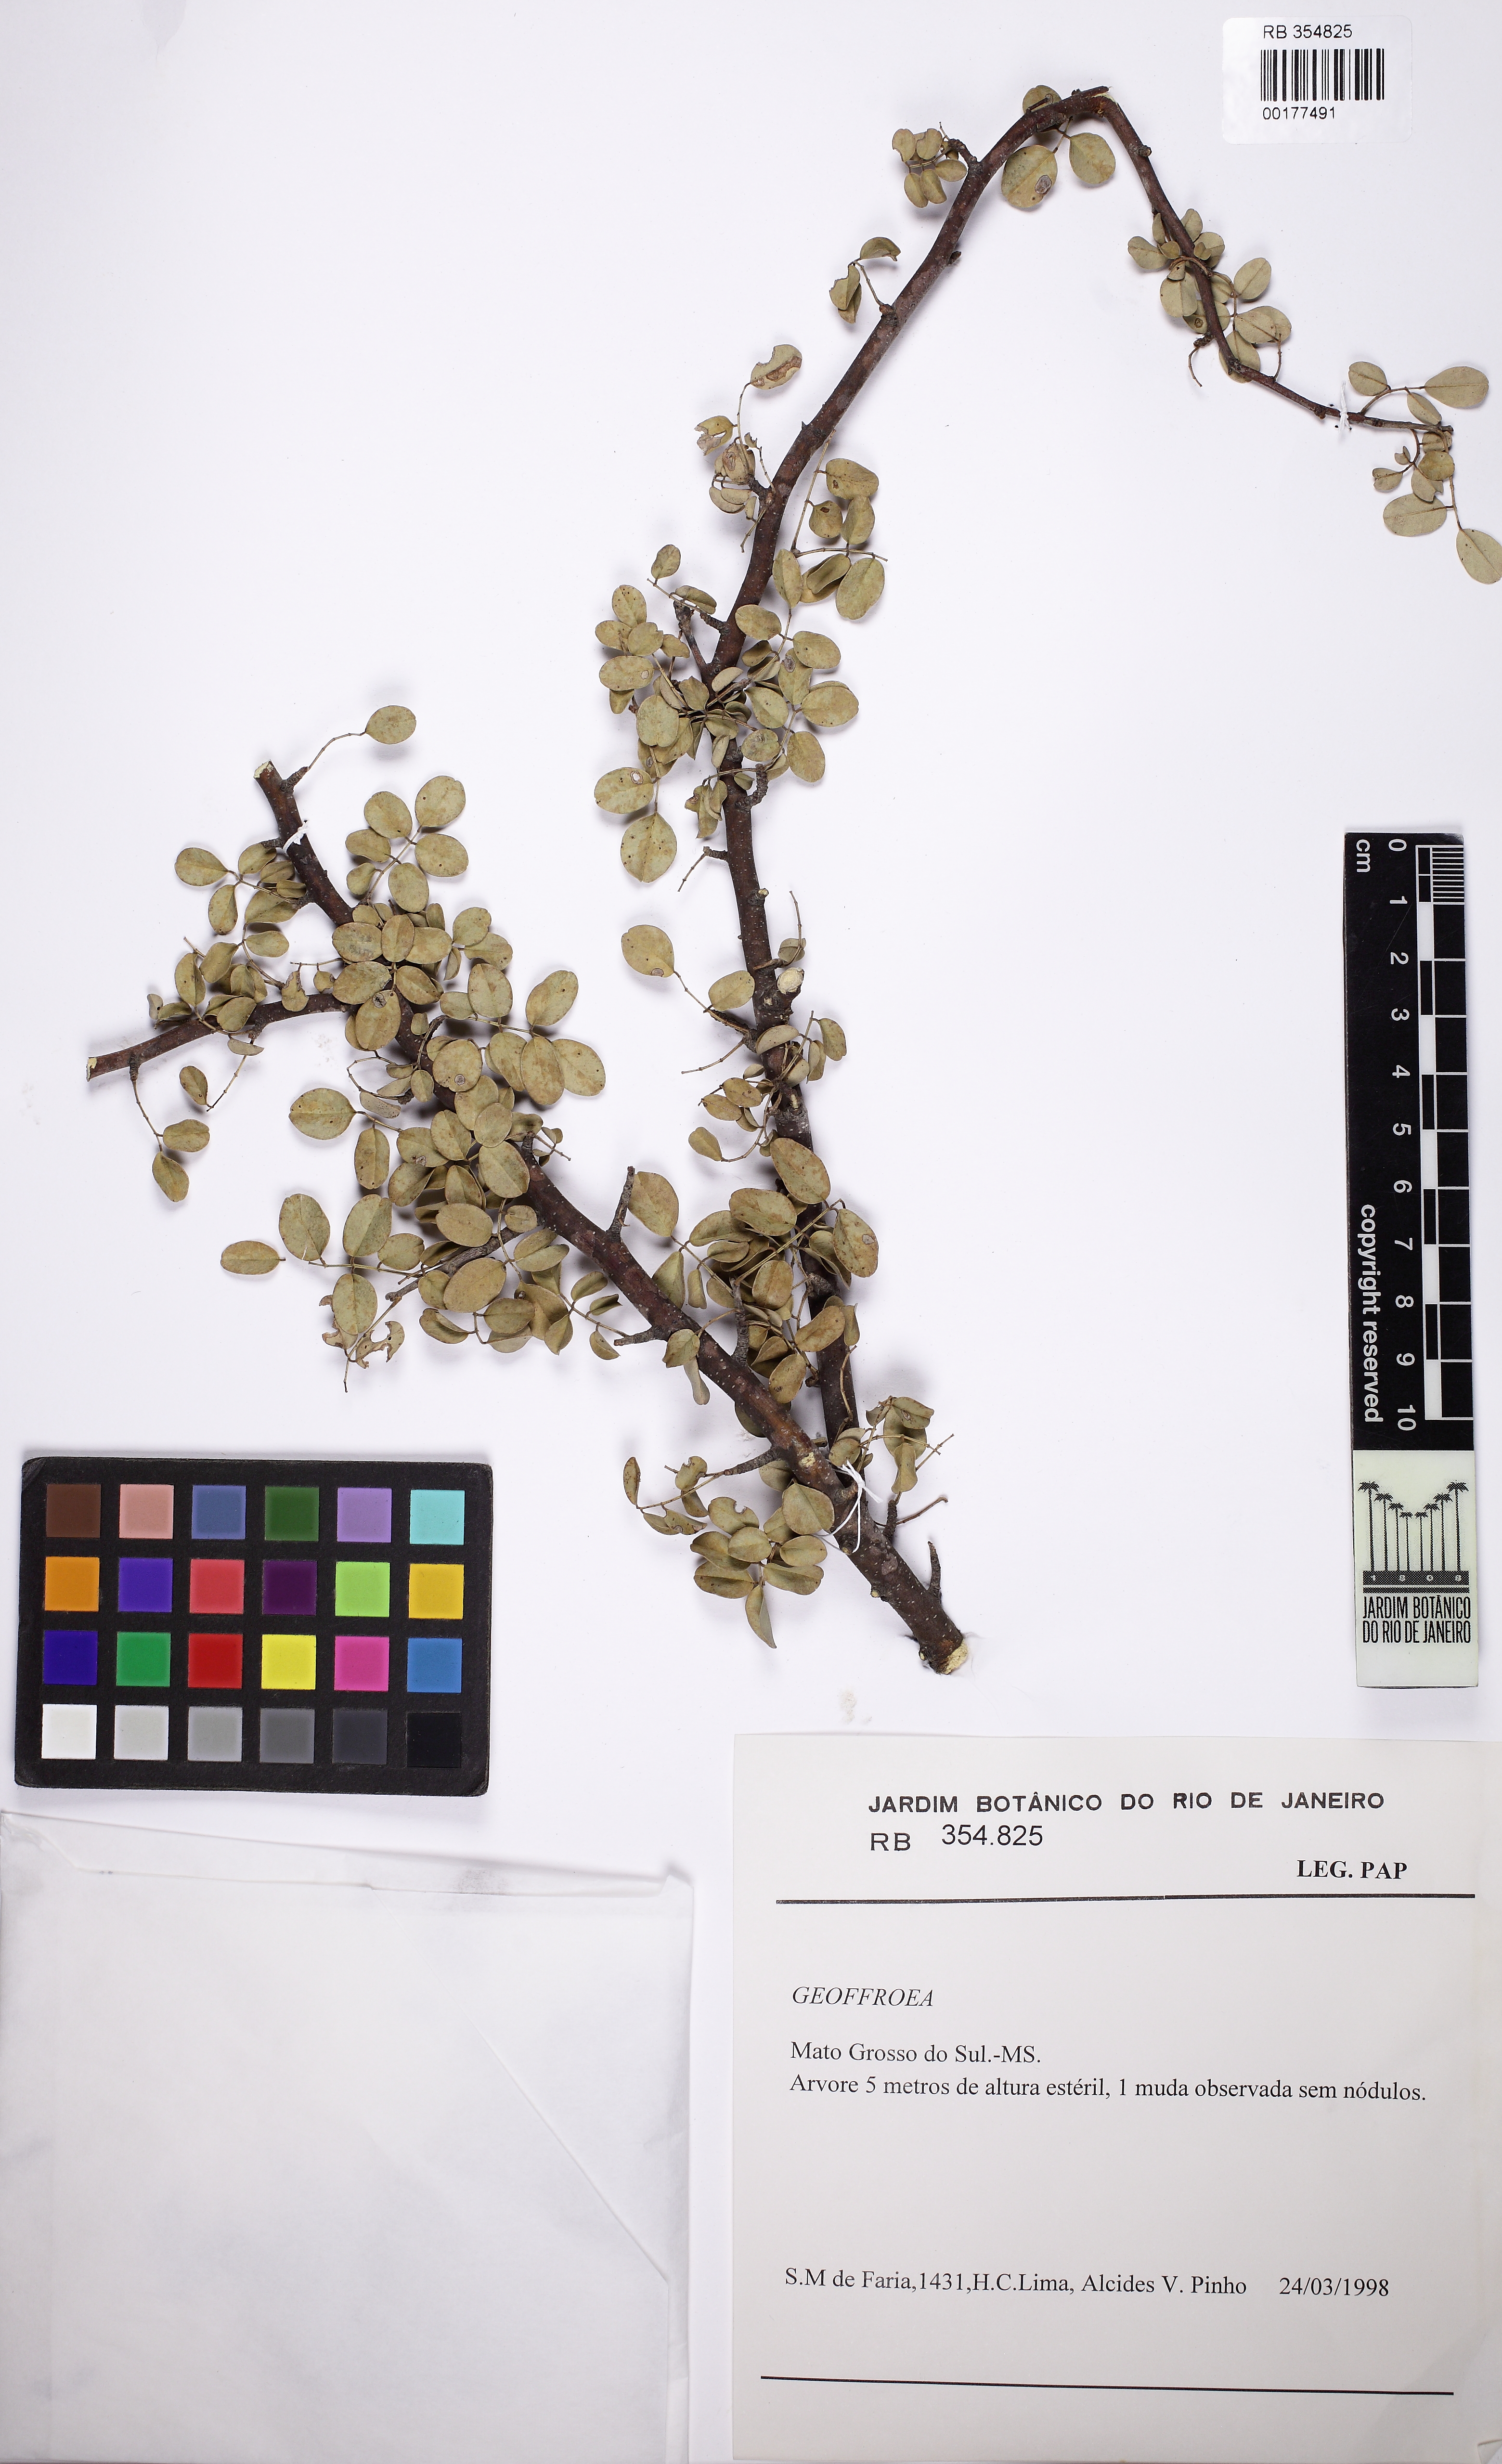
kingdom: Plantae
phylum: Tracheophyta
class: Magnoliopsida
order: Fabales
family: Fabaceae
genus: Geoffroea
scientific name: Geoffroea spinosa
